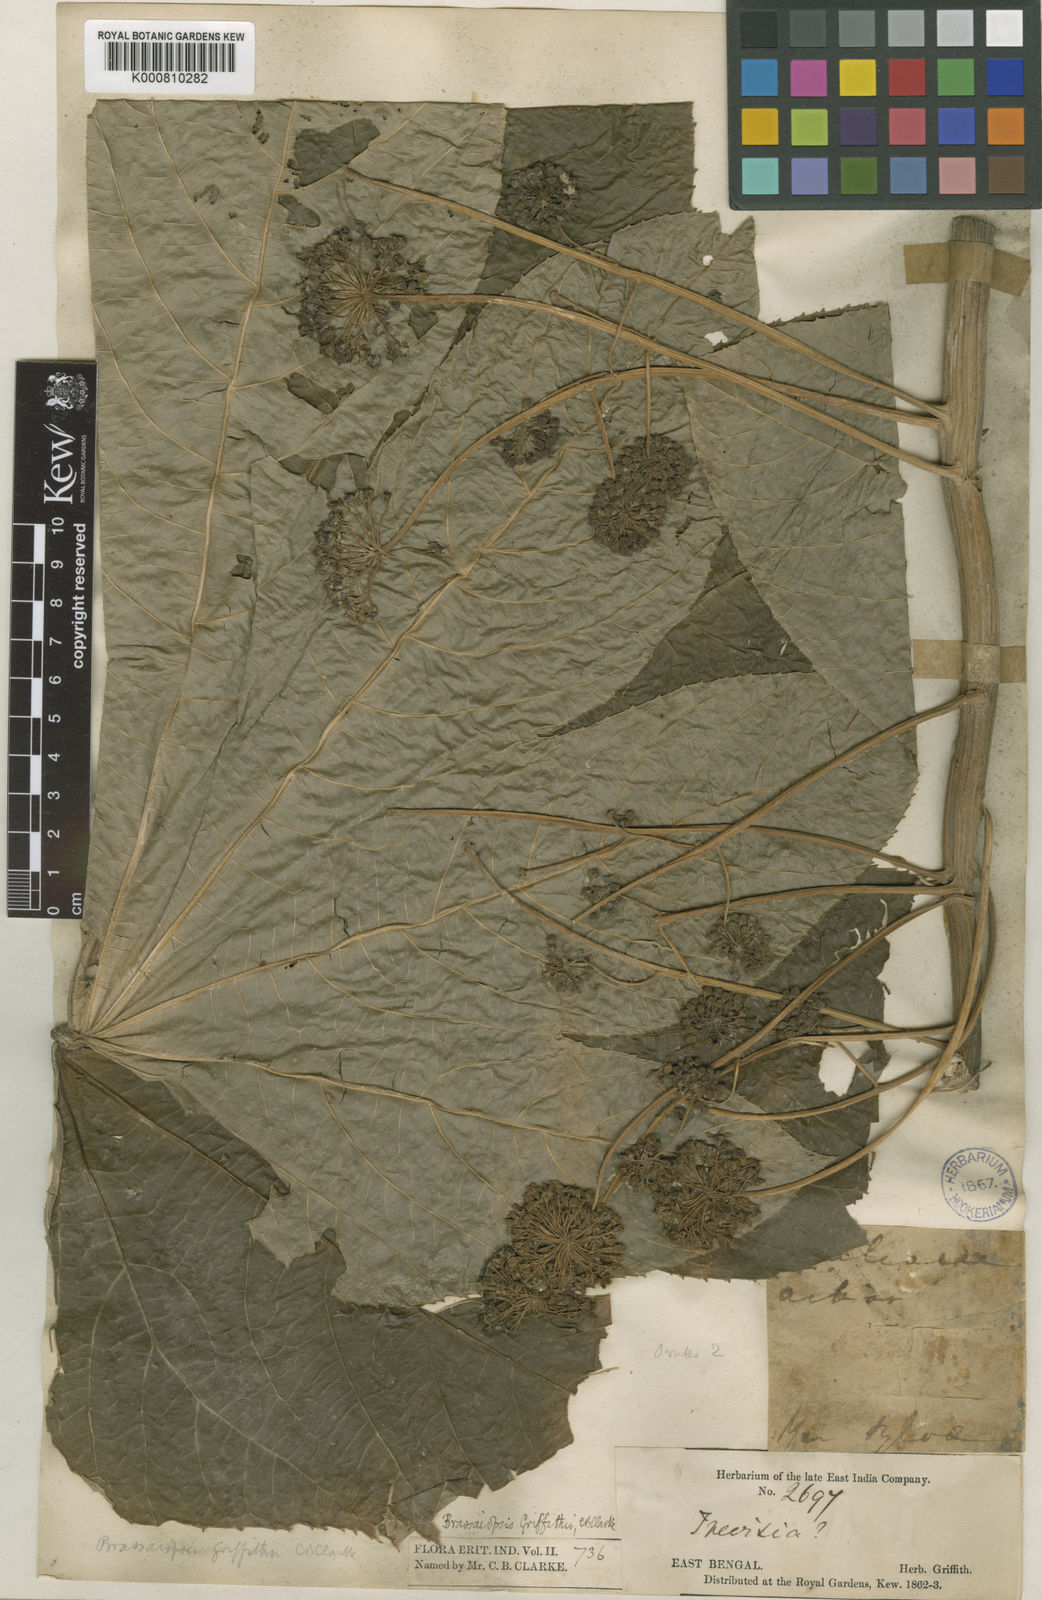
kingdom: Plantae
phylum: Tracheophyta
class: Magnoliopsida
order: Apiales
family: Araliaceae
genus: Brassaiopsis
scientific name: Brassaiopsis andamanica
